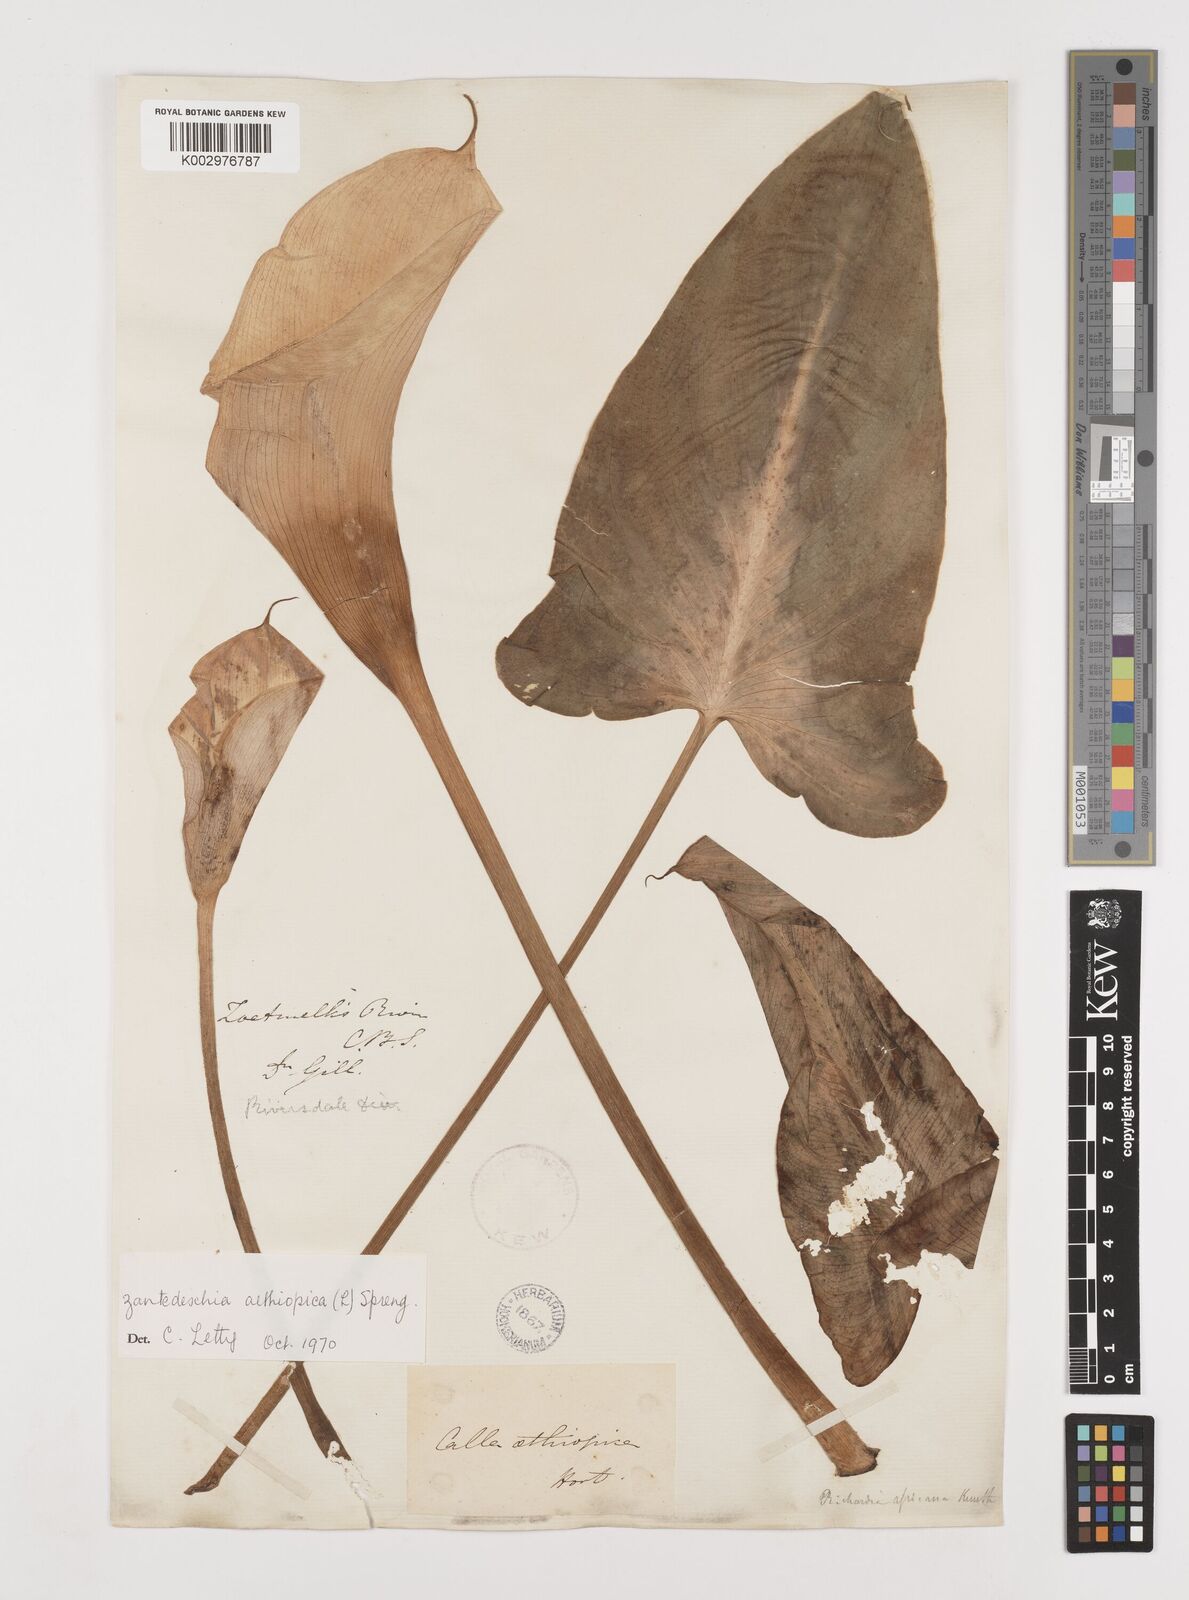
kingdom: Plantae
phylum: Tracheophyta
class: Liliopsida
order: Alismatales
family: Araceae
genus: Zantedeschia
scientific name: Zantedeschia aethiopica
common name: Altar-lily
